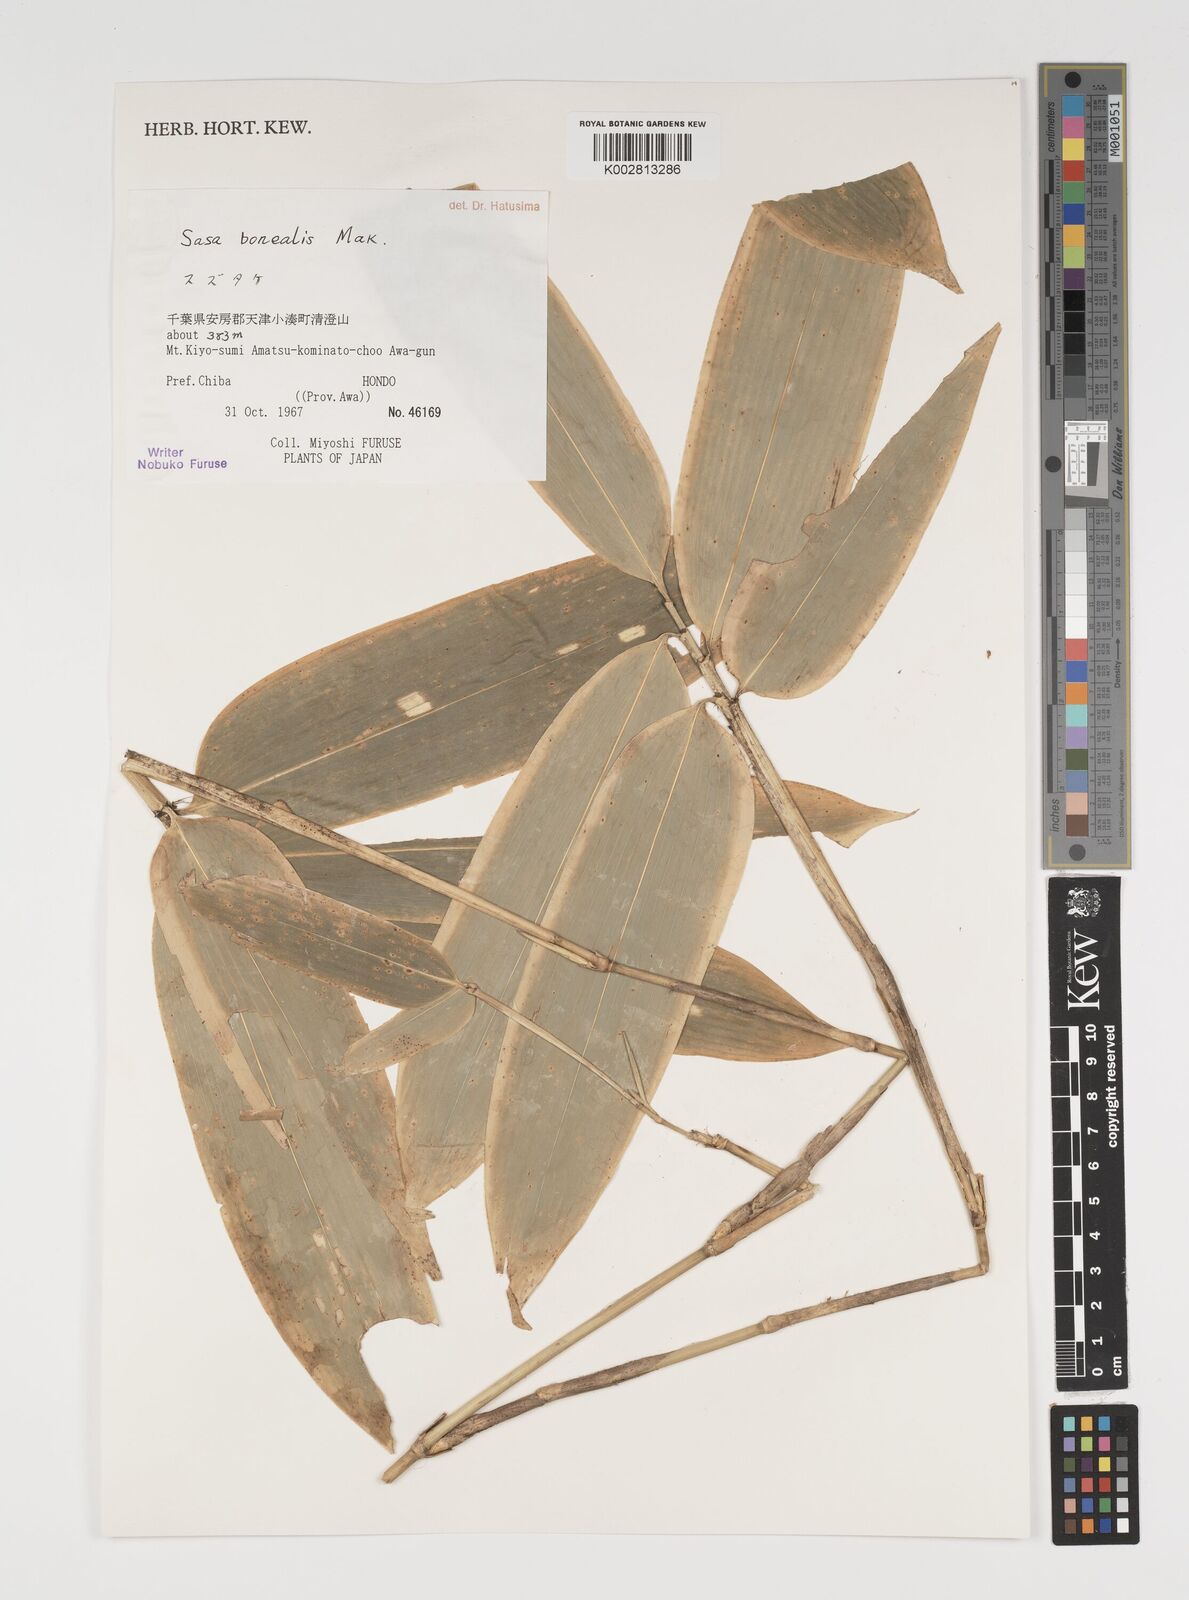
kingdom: Plantae
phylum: Tracheophyta
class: Liliopsida
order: Poales
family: Poaceae
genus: Sasamorpha
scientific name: Sasamorpha borealis
